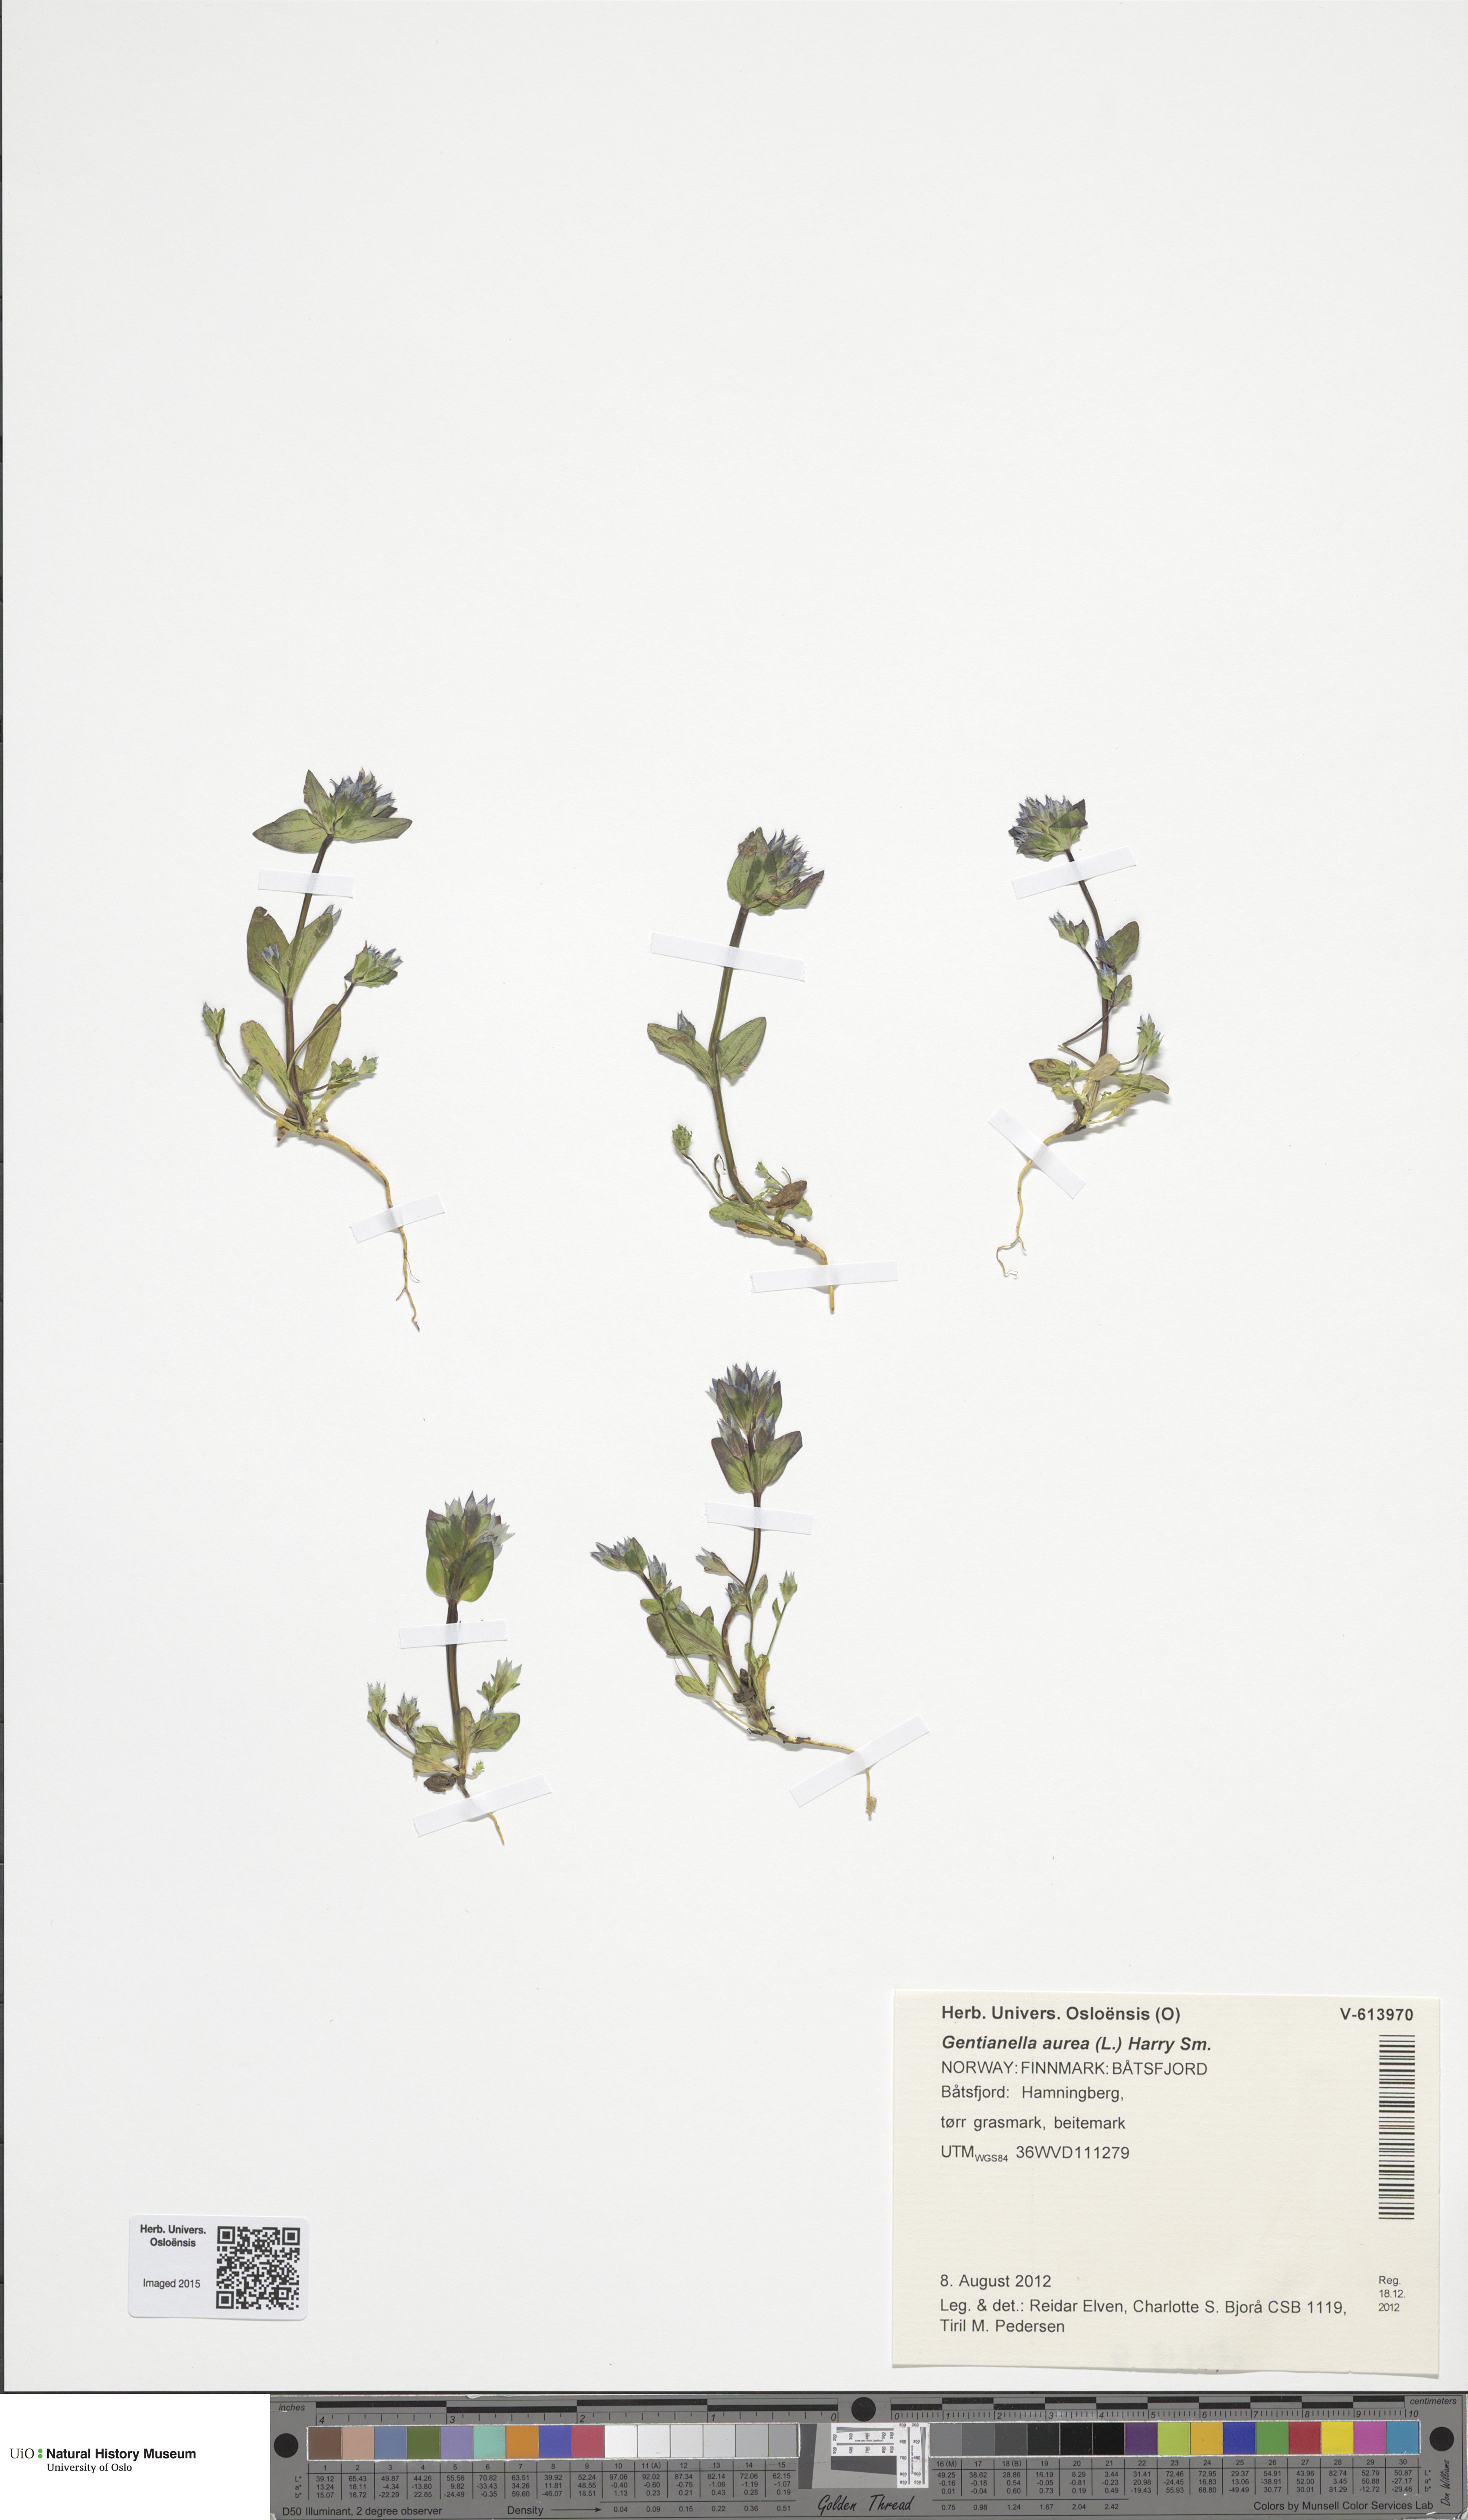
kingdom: Plantae
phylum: Tracheophyta
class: Magnoliopsida
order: Gentianales
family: Gentianaceae
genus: Gentianella
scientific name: Gentianella aurea
